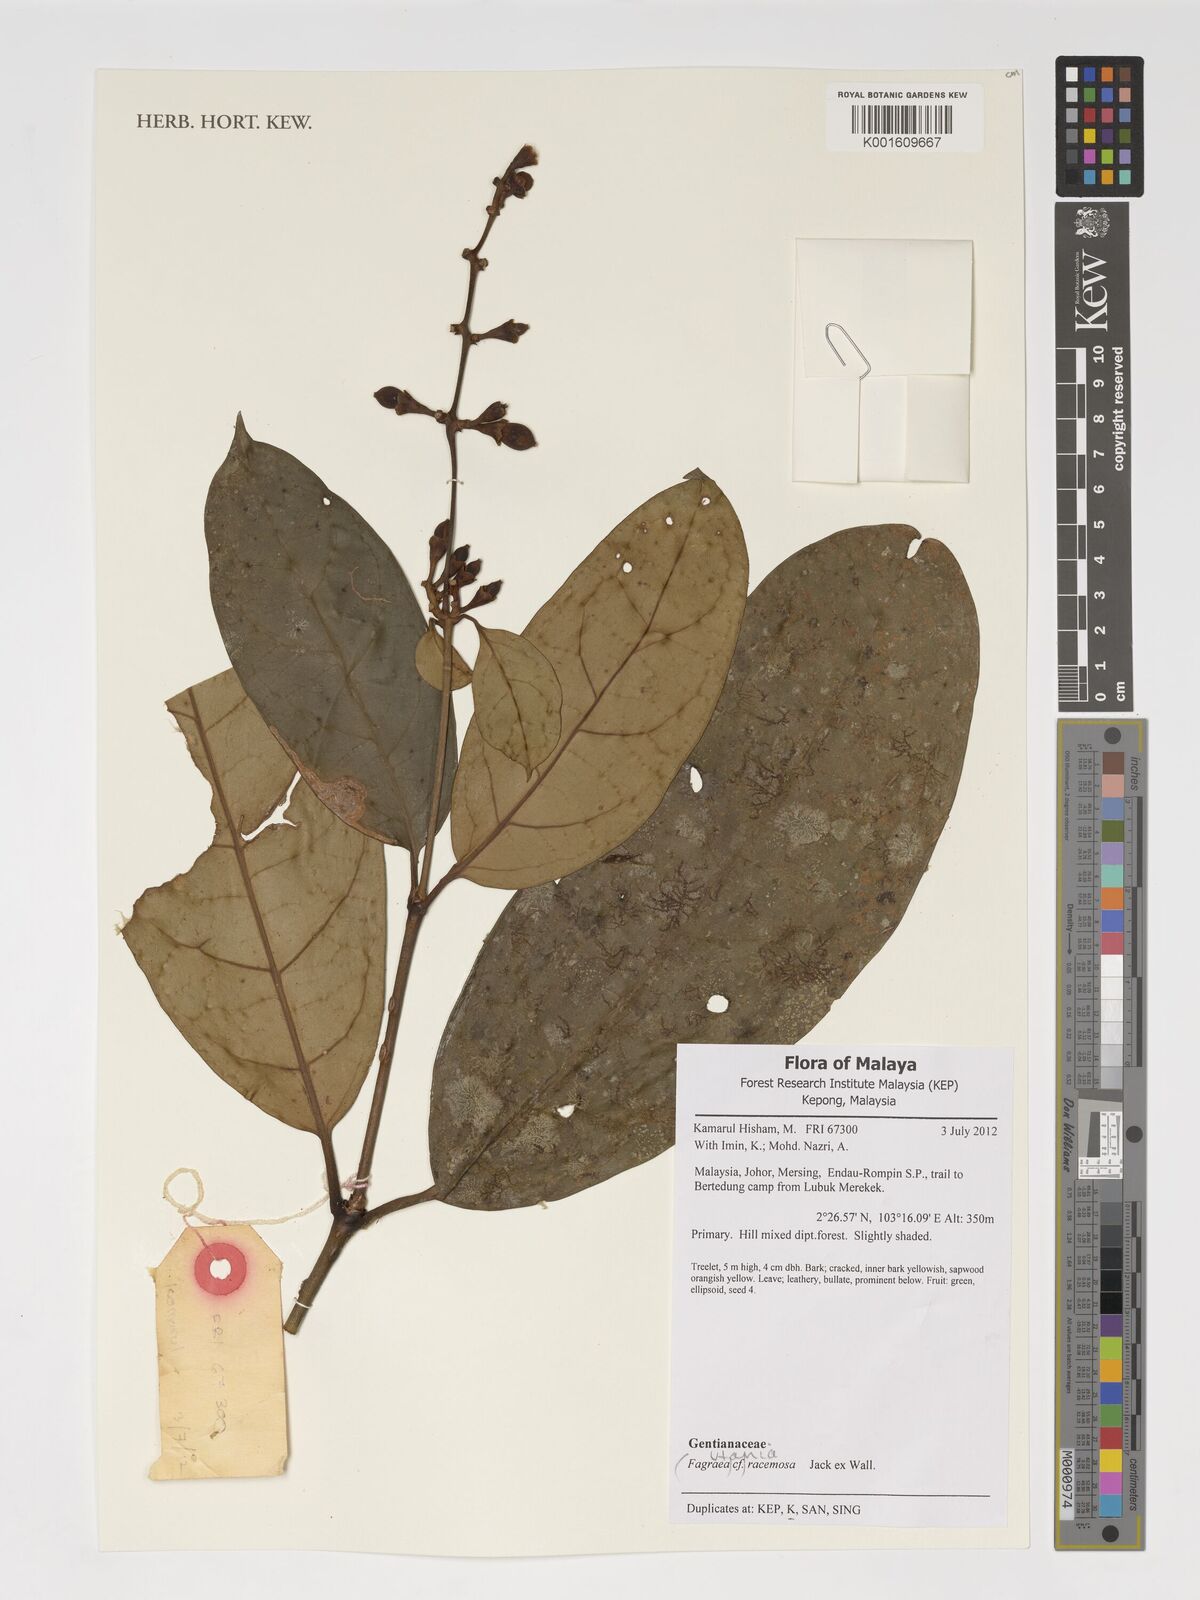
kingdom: Plantae
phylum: Tracheophyta
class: Magnoliopsida
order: Gentianales
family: Gentianaceae
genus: Utania
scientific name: Utania racemosa
